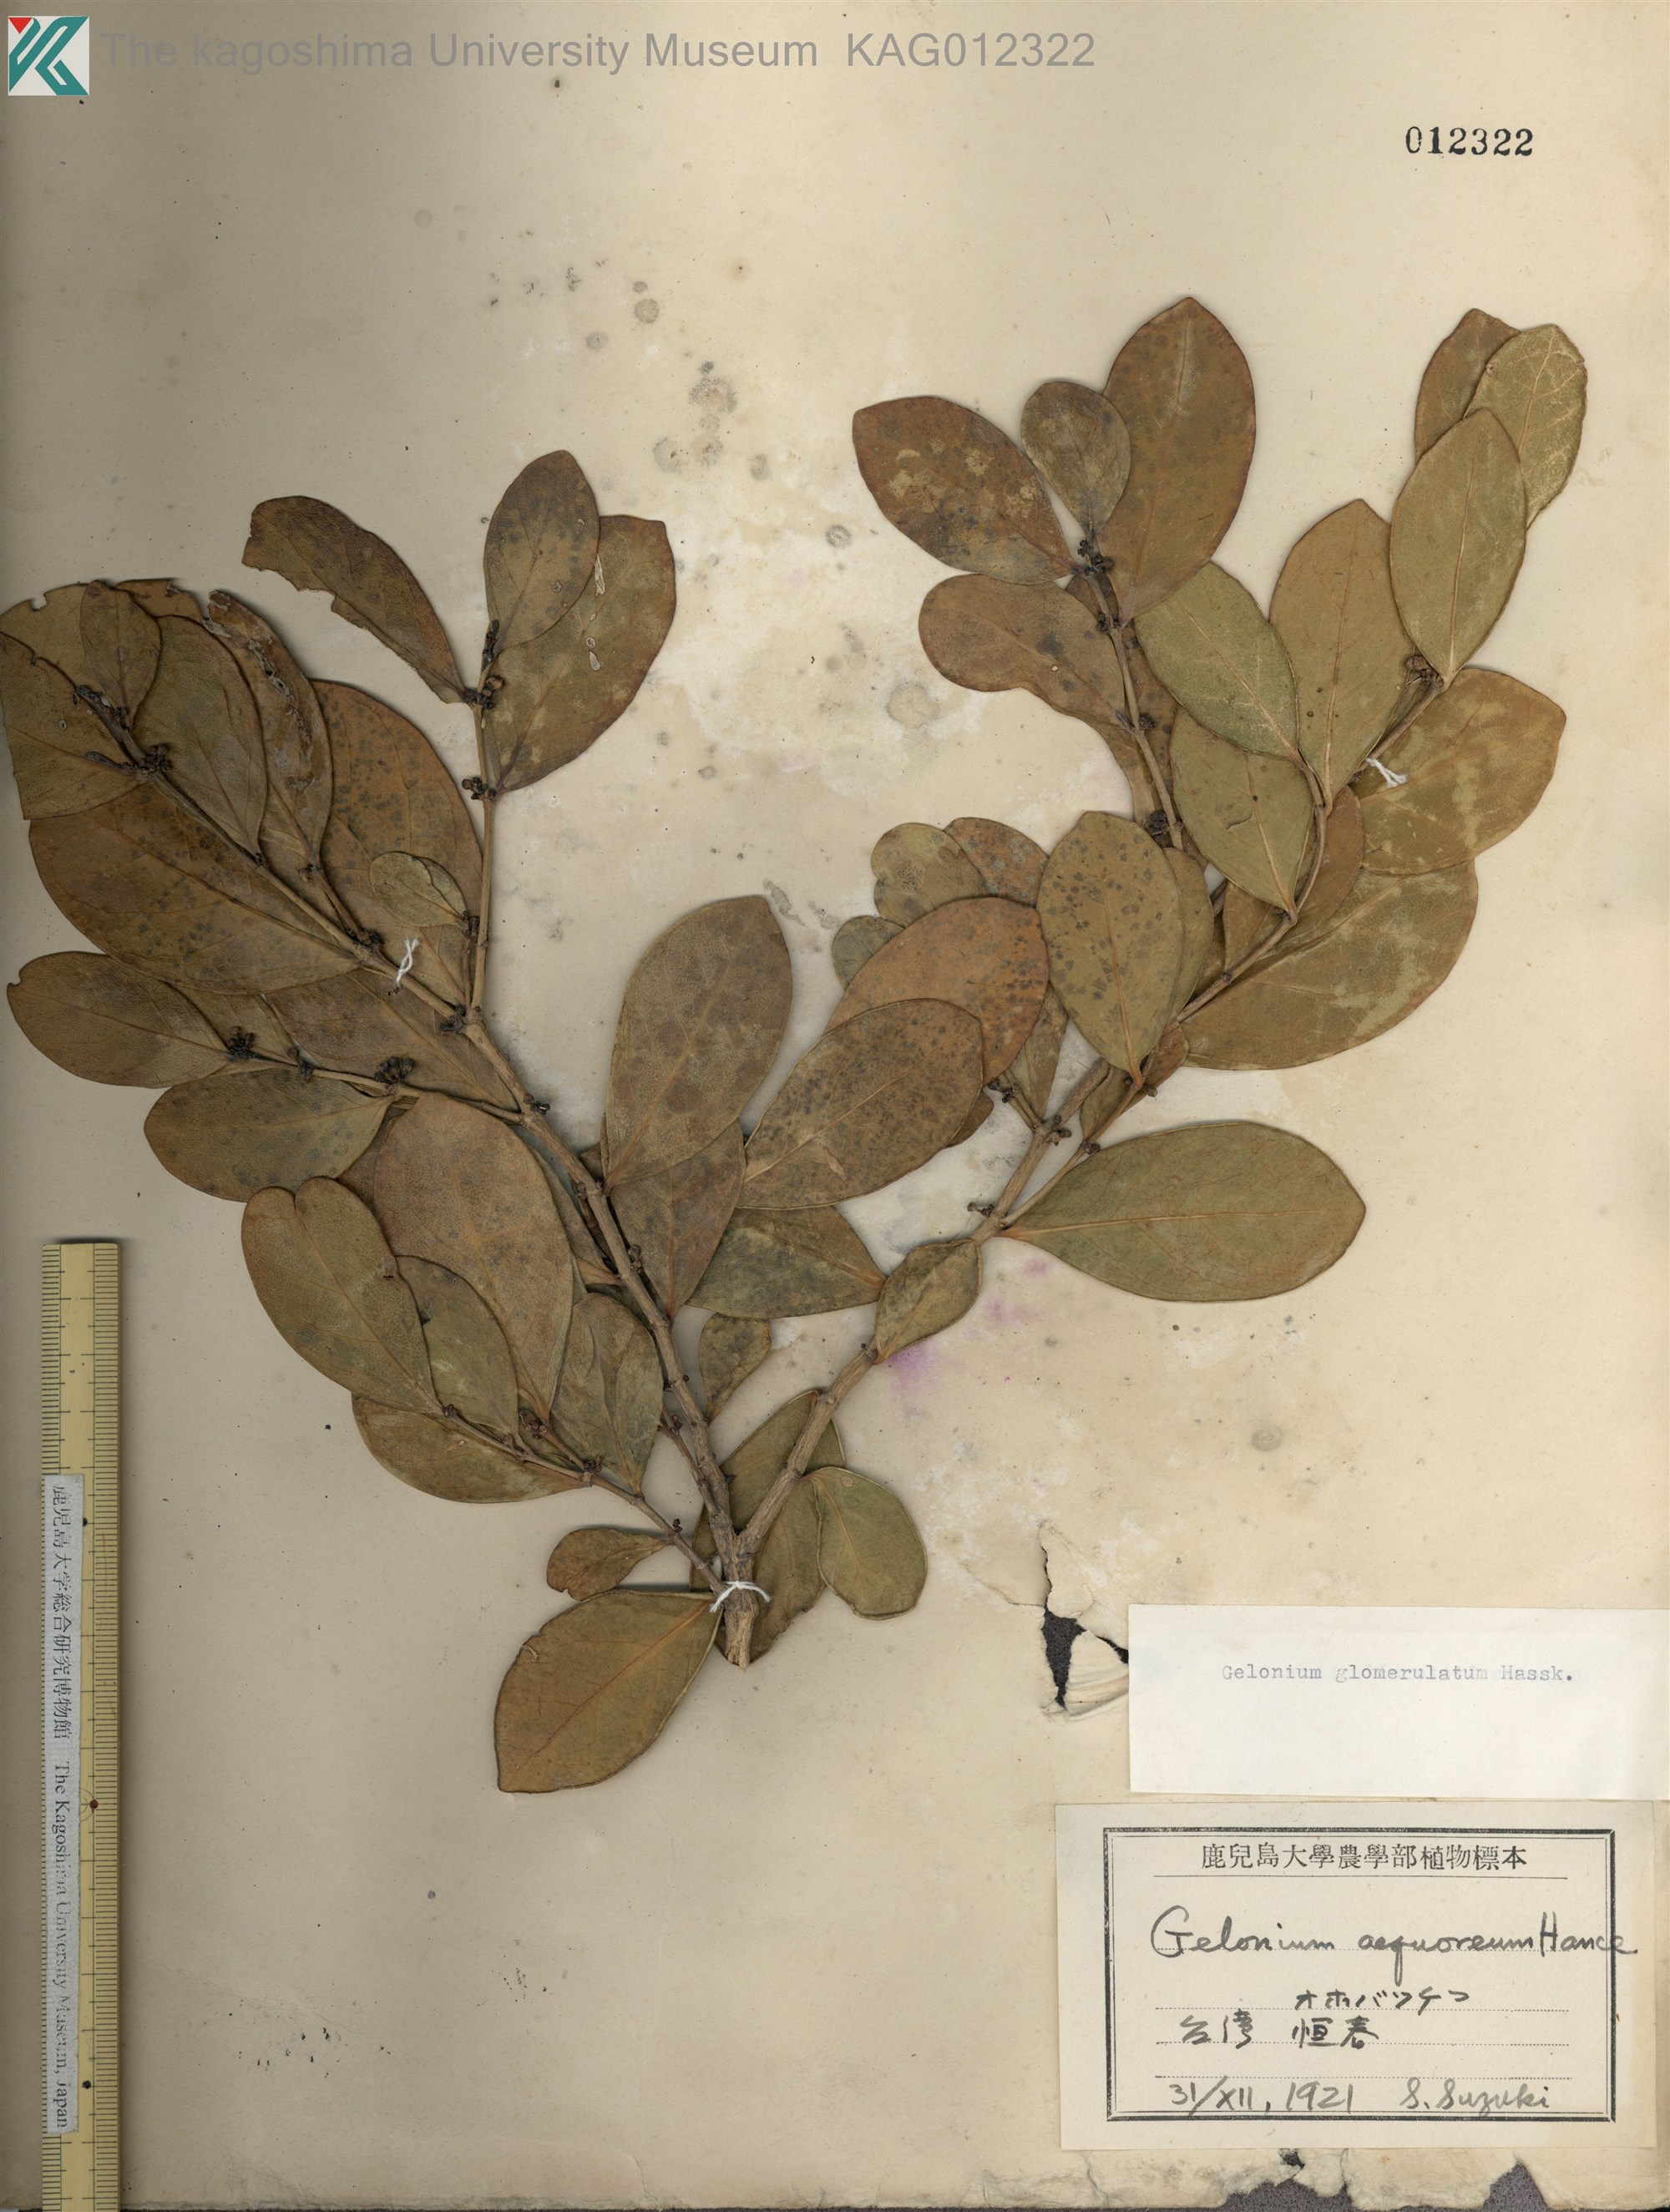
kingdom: Plantae
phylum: Tracheophyta
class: Magnoliopsida
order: Malpighiales
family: Phyllanthaceae
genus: Glochidion
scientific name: Glochidion glomerulatum
